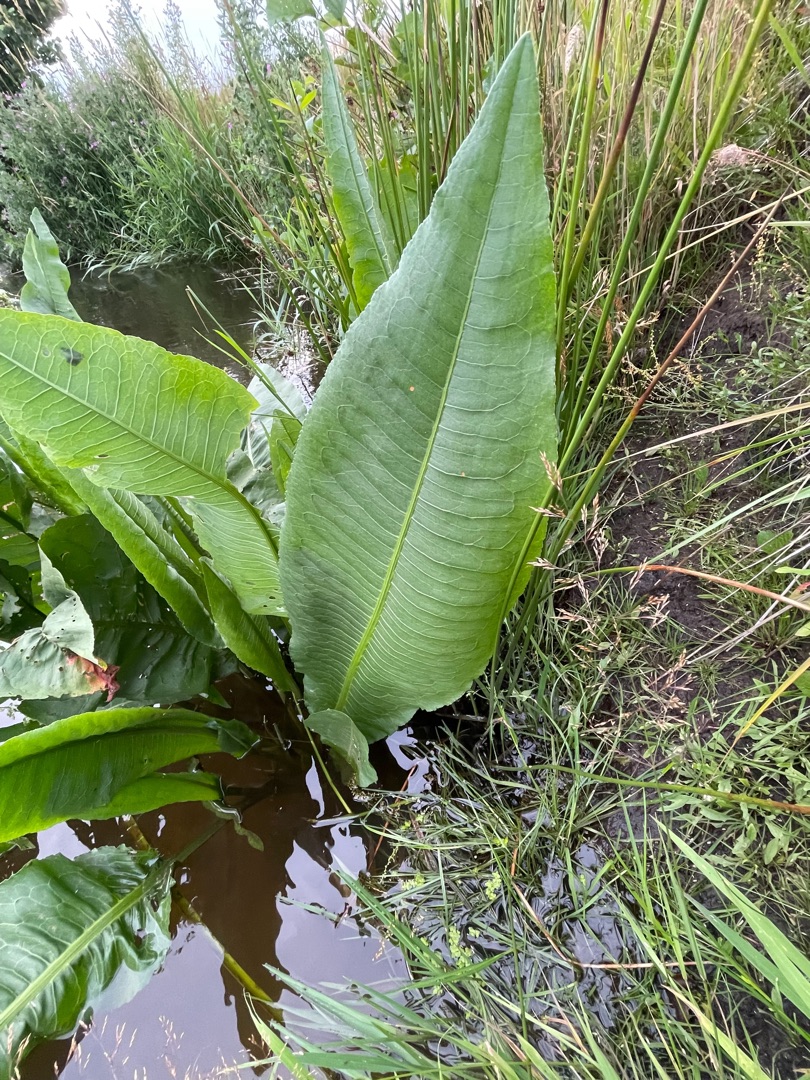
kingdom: Plantae
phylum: Tracheophyta
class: Magnoliopsida
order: Caryophyllales
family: Polygonaceae
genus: Rumex
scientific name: Rumex hydrolapathum
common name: Vand-skræppe
